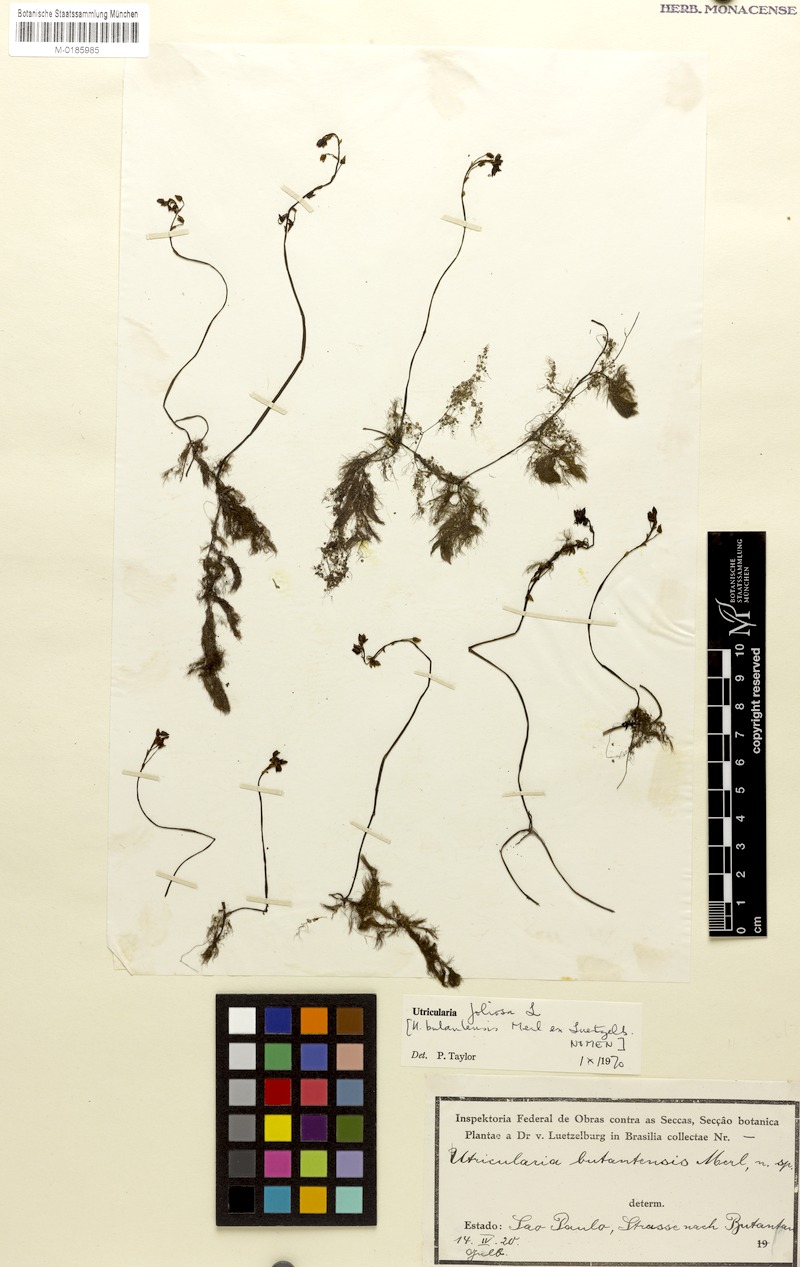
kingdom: Plantae
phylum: Tracheophyta
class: Magnoliopsida
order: Lamiales
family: Lentibulariaceae
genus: Utricularia
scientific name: Utricularia foliosa
